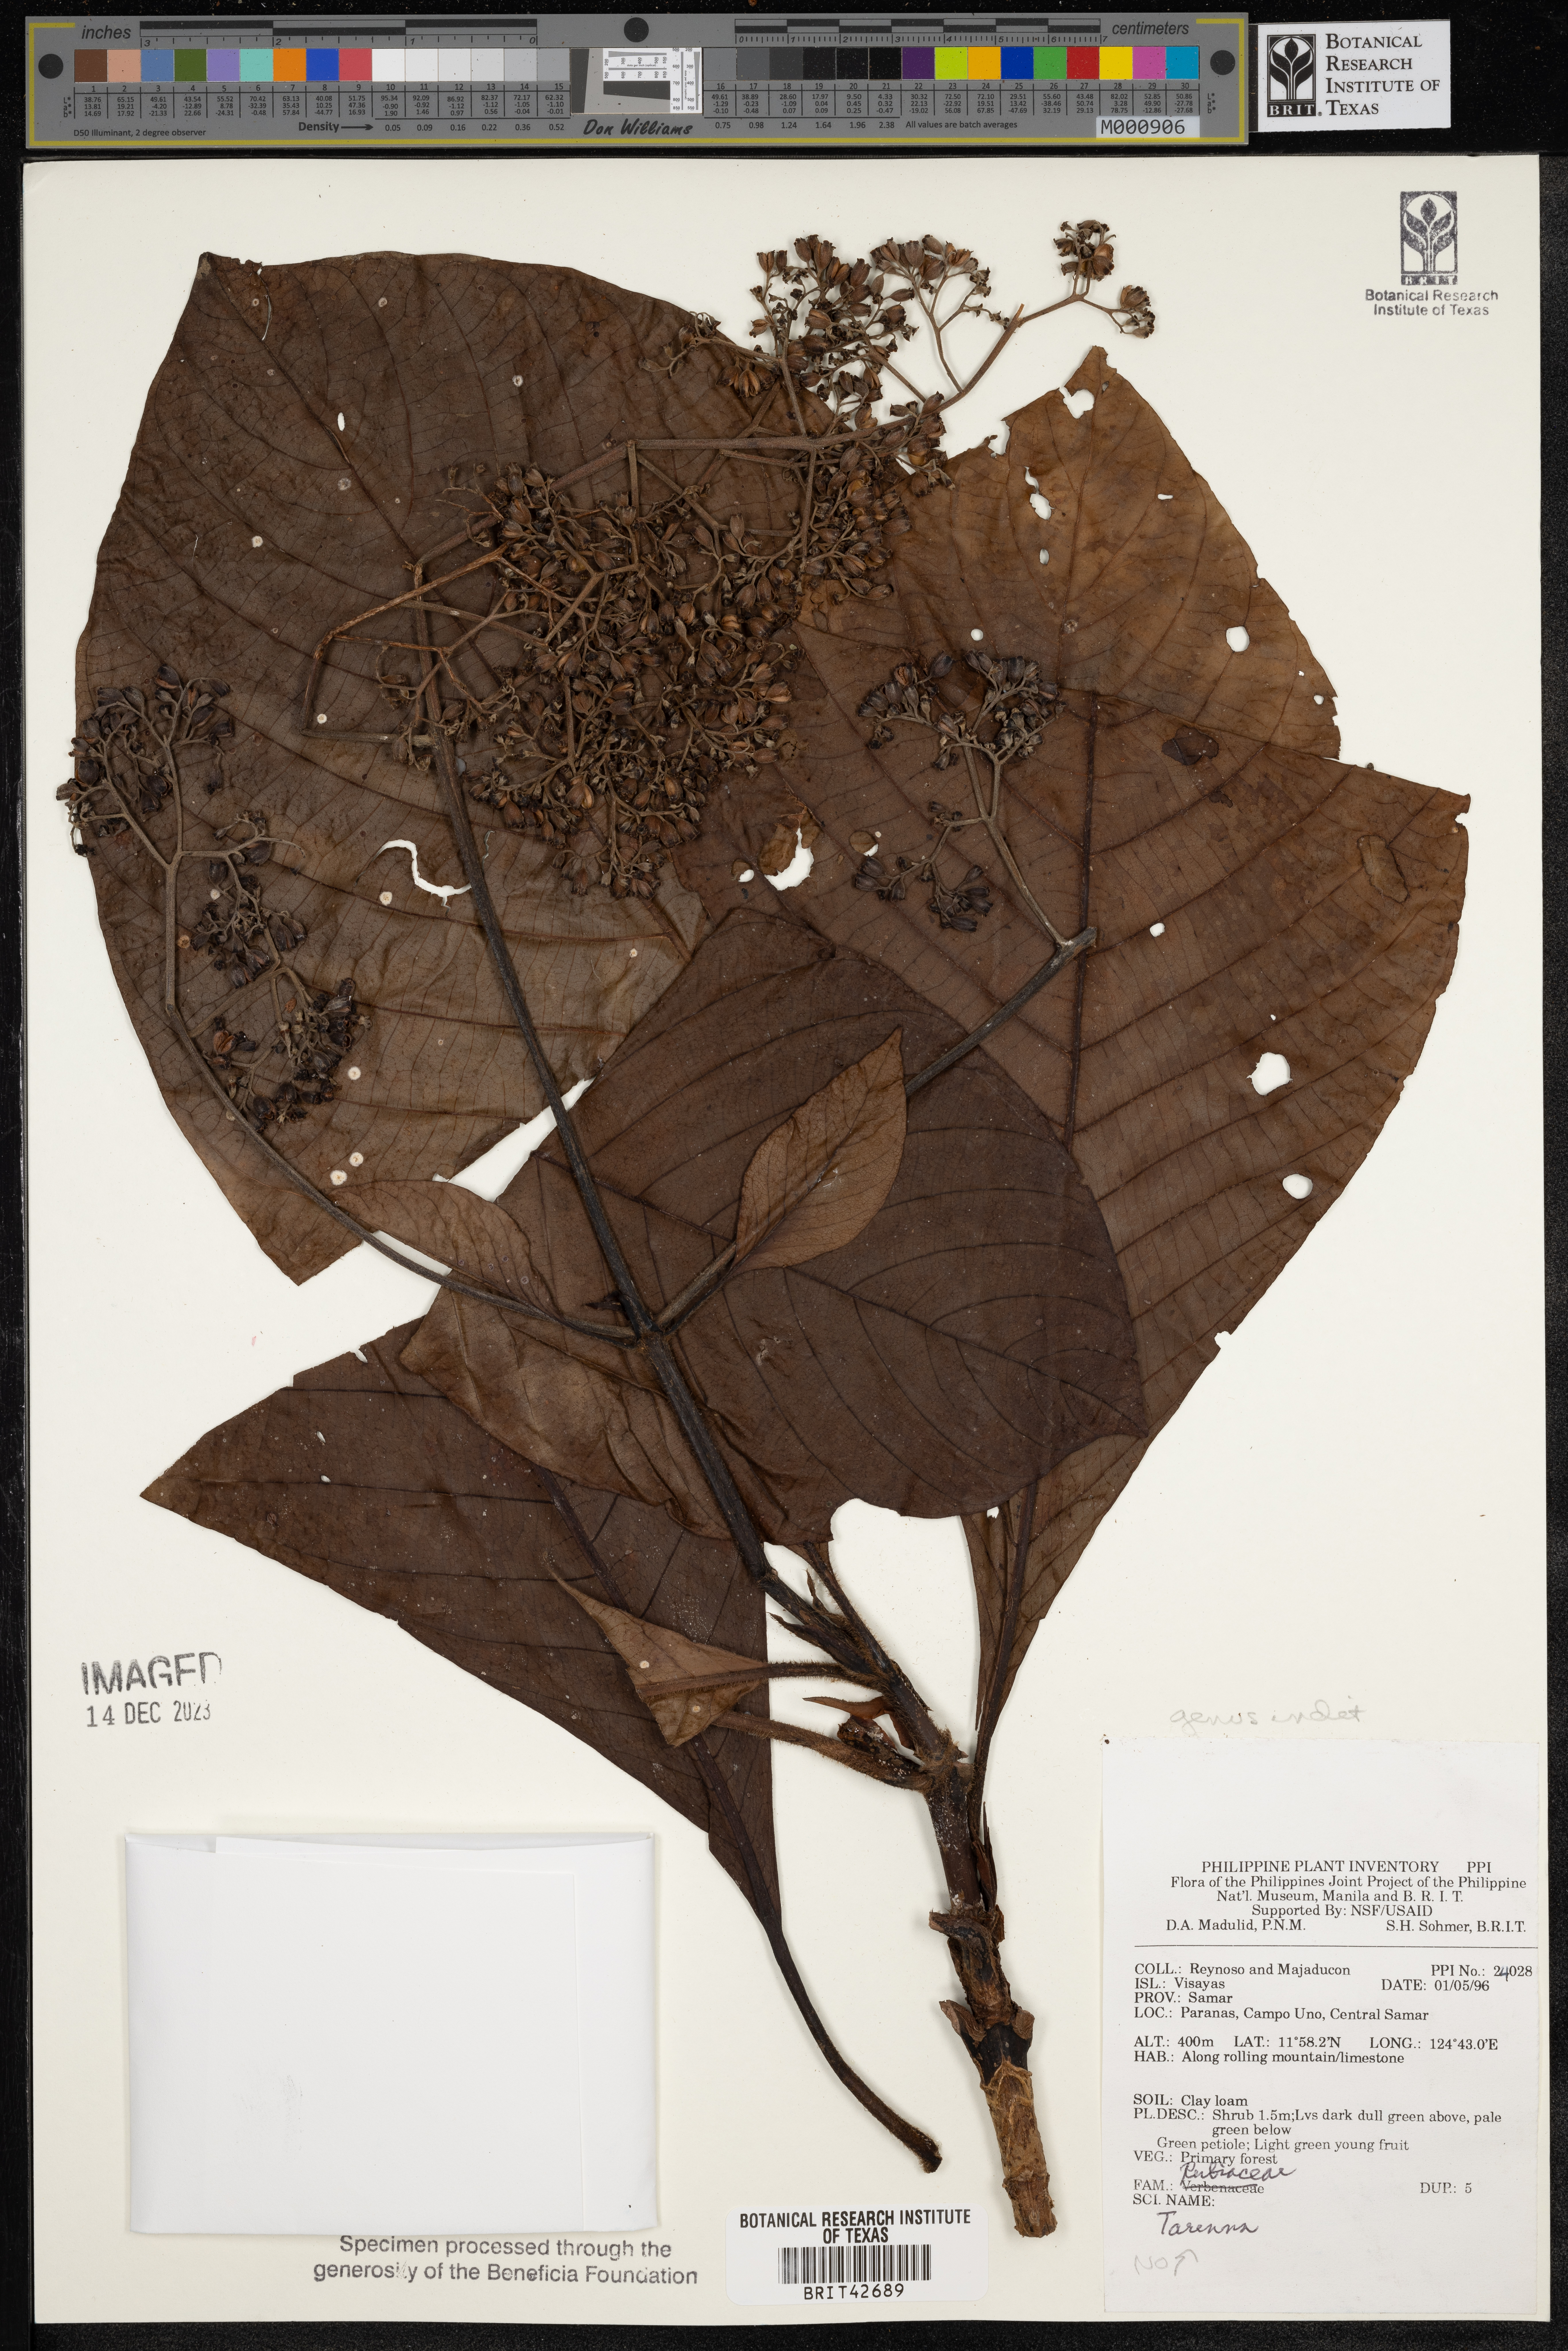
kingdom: Plantae
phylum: Tracheophyta
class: Magnoliopsida
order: Gentianales
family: Rubiaceae
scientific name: Rubiaceae
